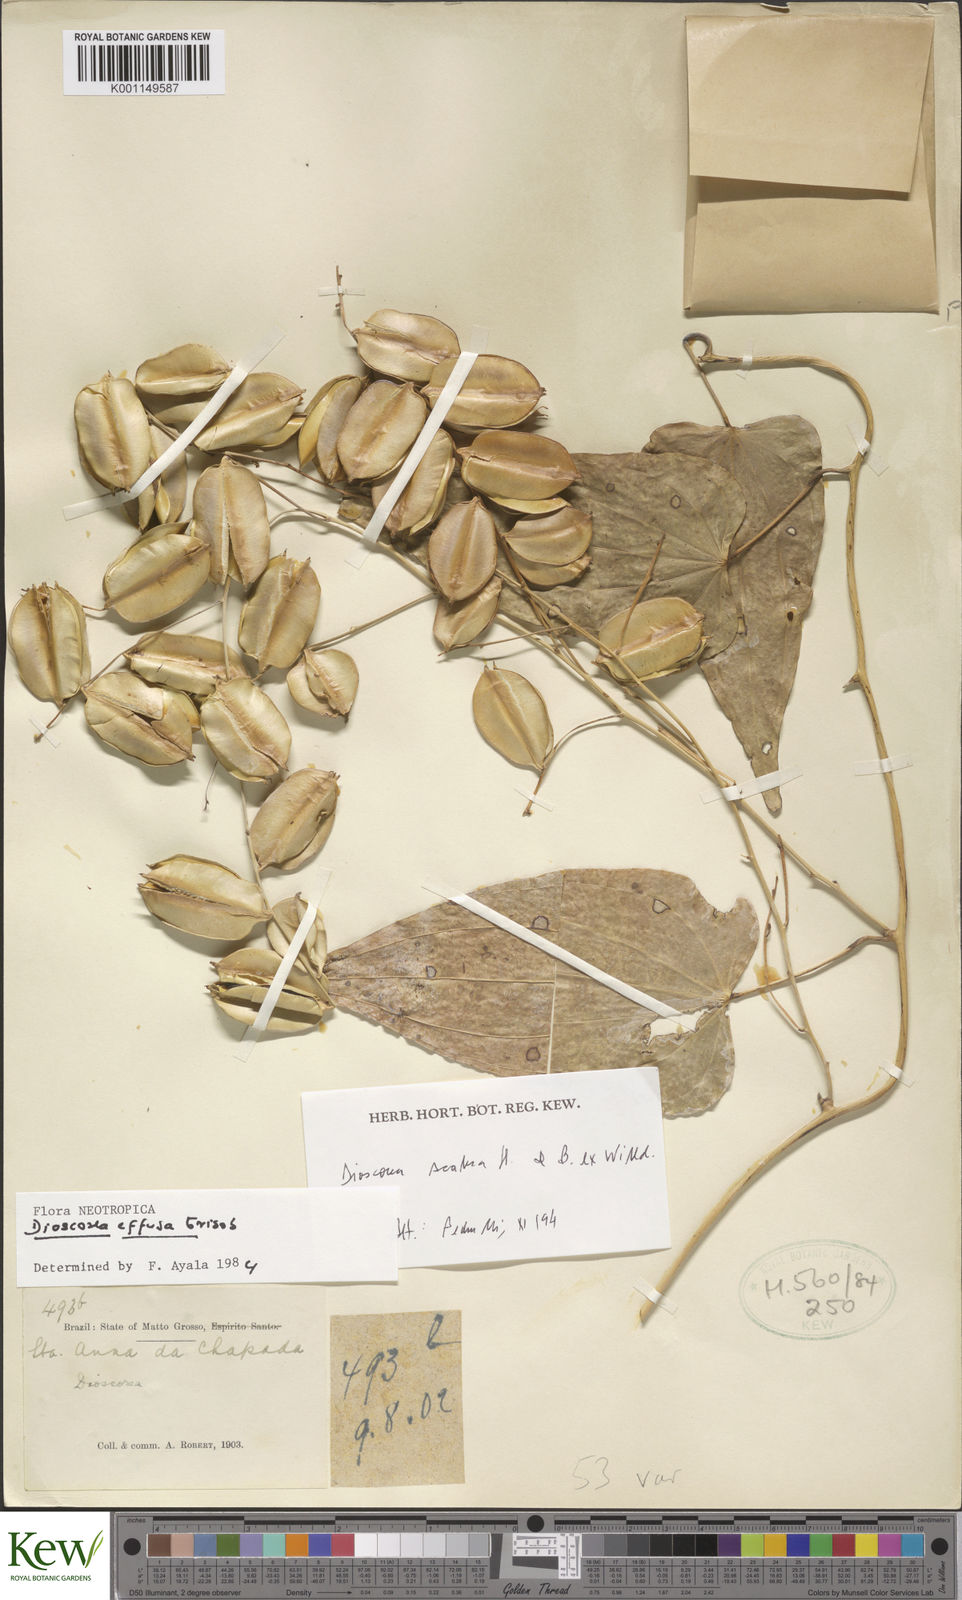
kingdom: Plantae
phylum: Tracheophyta
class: Liliopsida
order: Dioscoreales
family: Dioscoreaceae
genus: Dioscorea
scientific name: Dioscorea fodinarum
